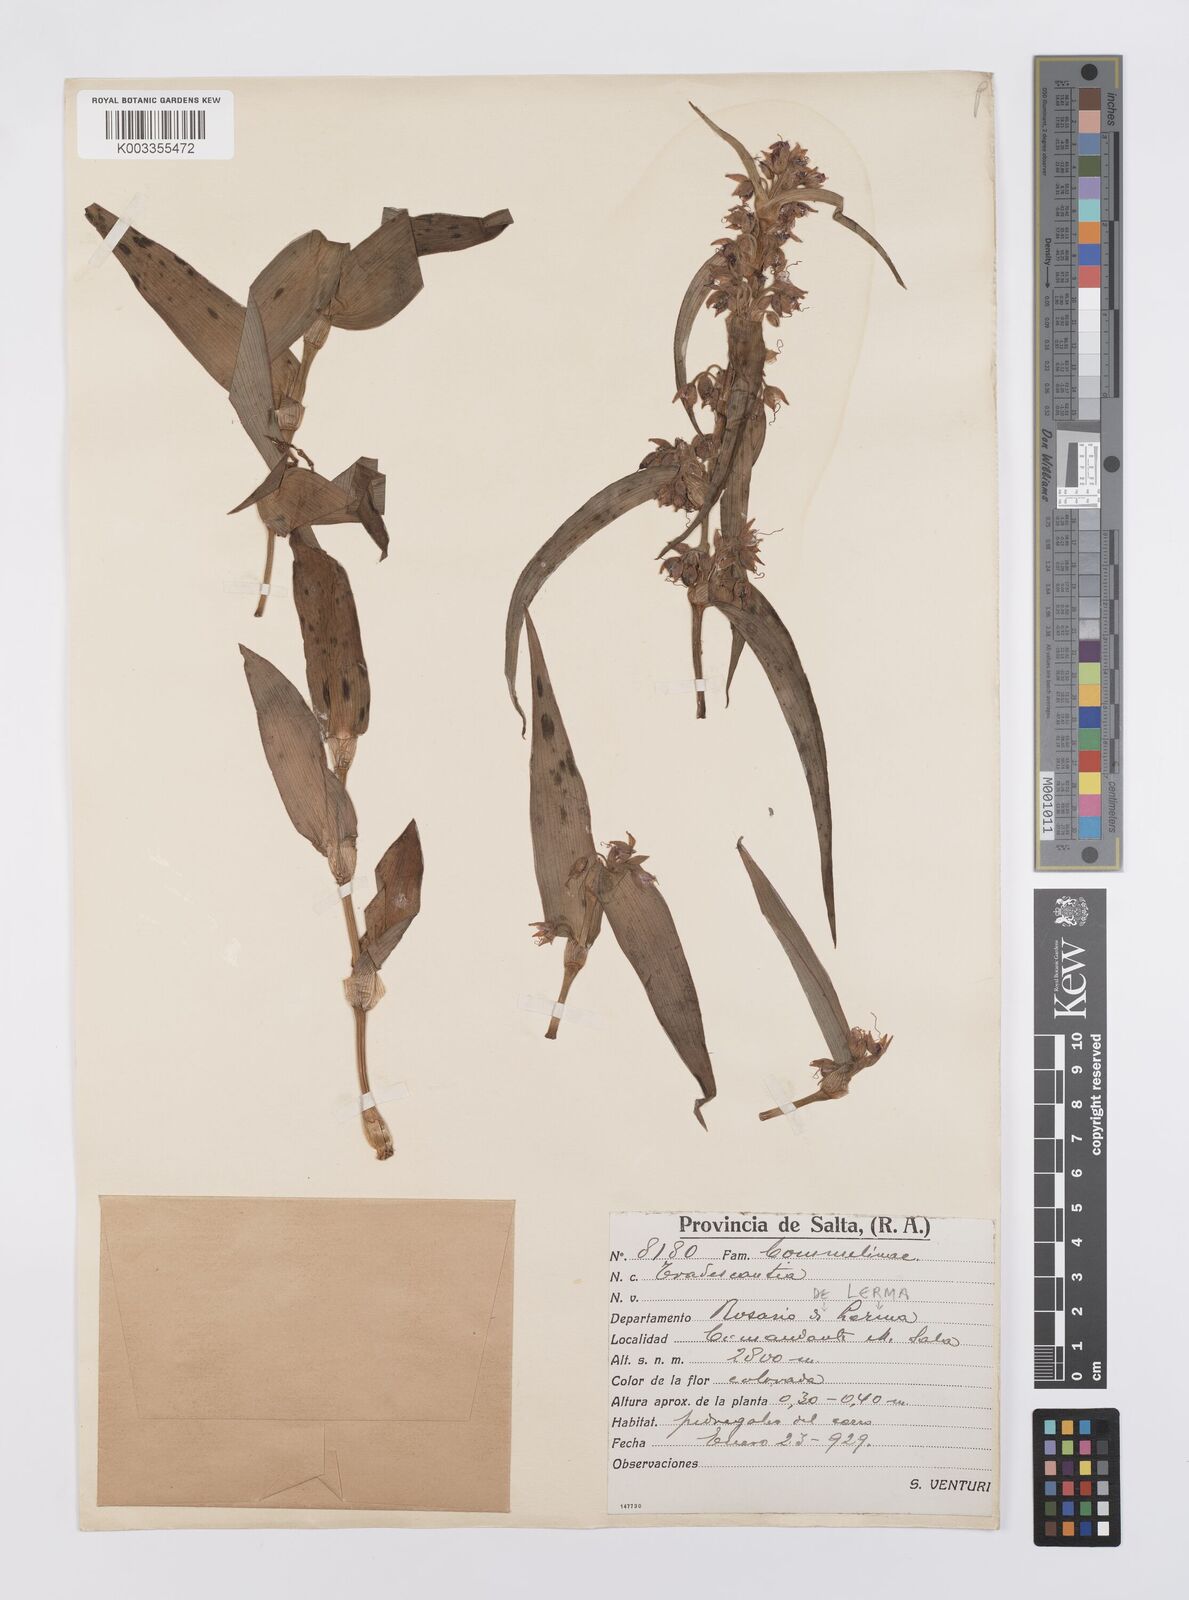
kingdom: Plantae
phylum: Tracheophyta
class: Liliopsida
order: Commelinales
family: Commelinaceae
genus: Tradescantia
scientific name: Tradescantia boliviana
